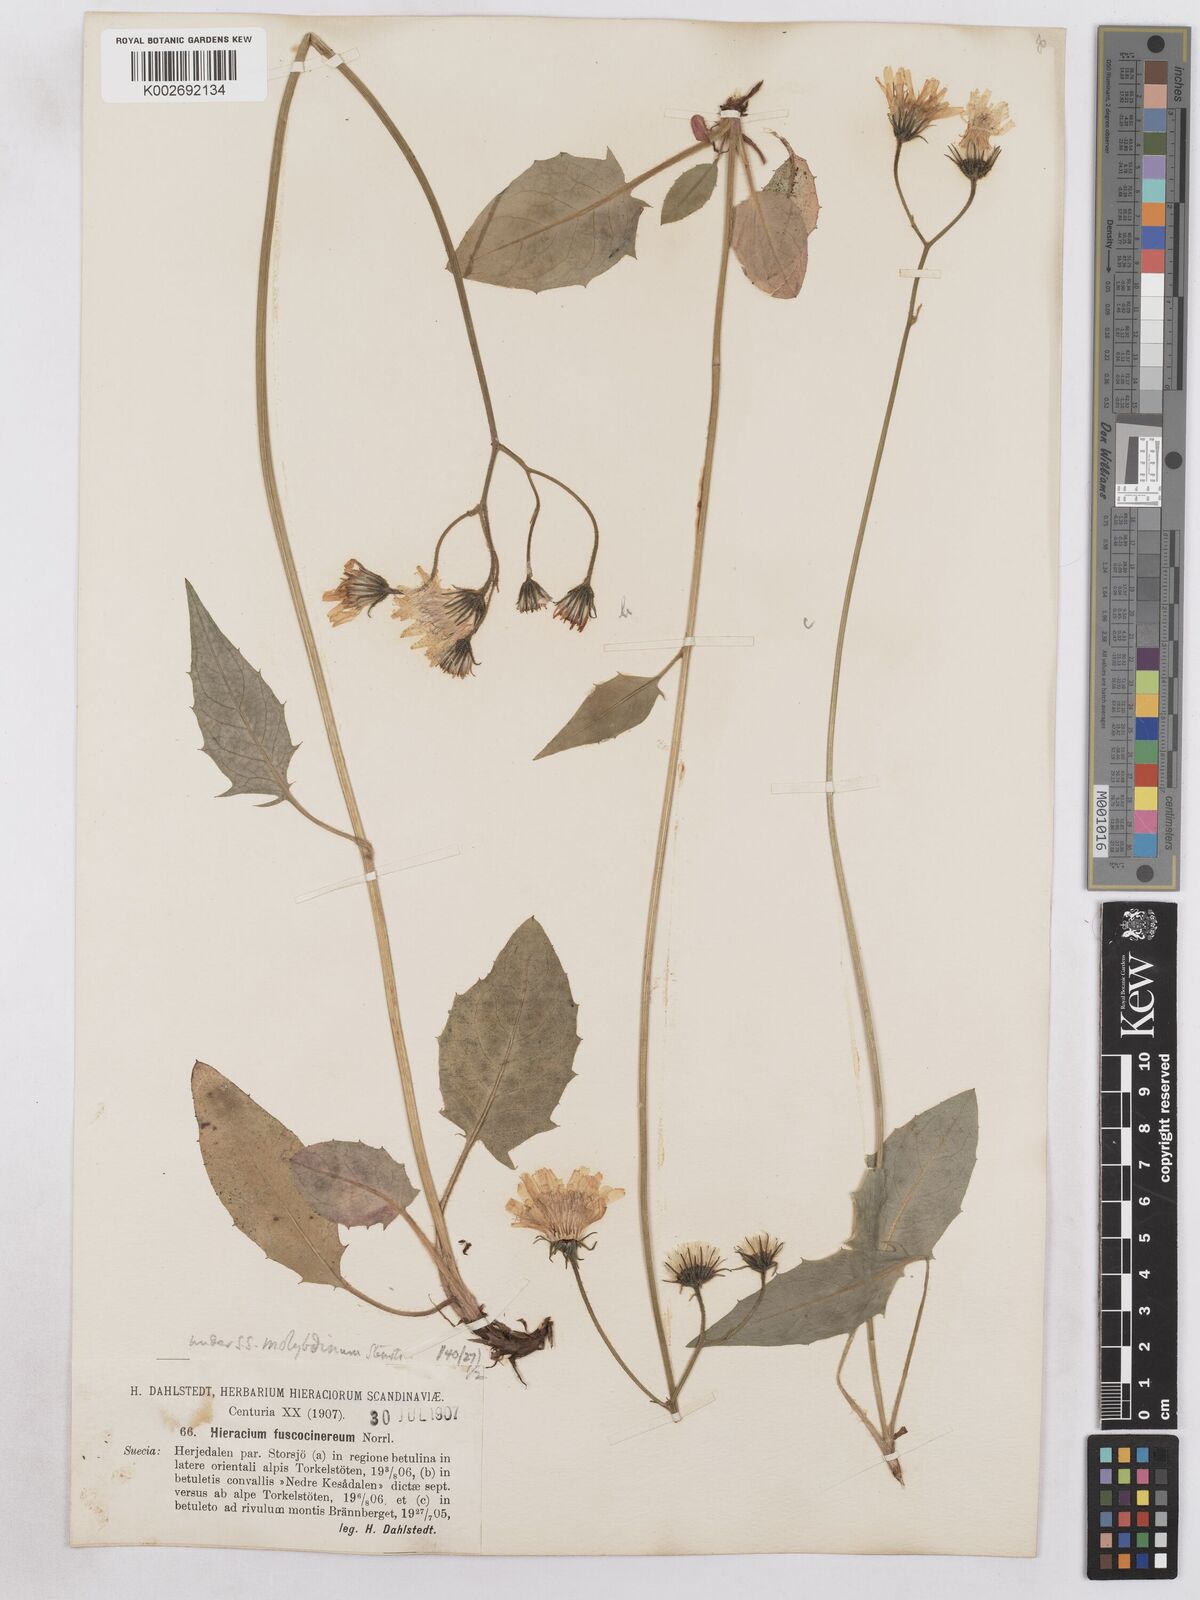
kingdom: Plantae
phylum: Tracheophyta
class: Magnoliopsida
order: Asterales
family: Asteraceae
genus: Hieracium
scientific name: Hieracium fuscocinereum
